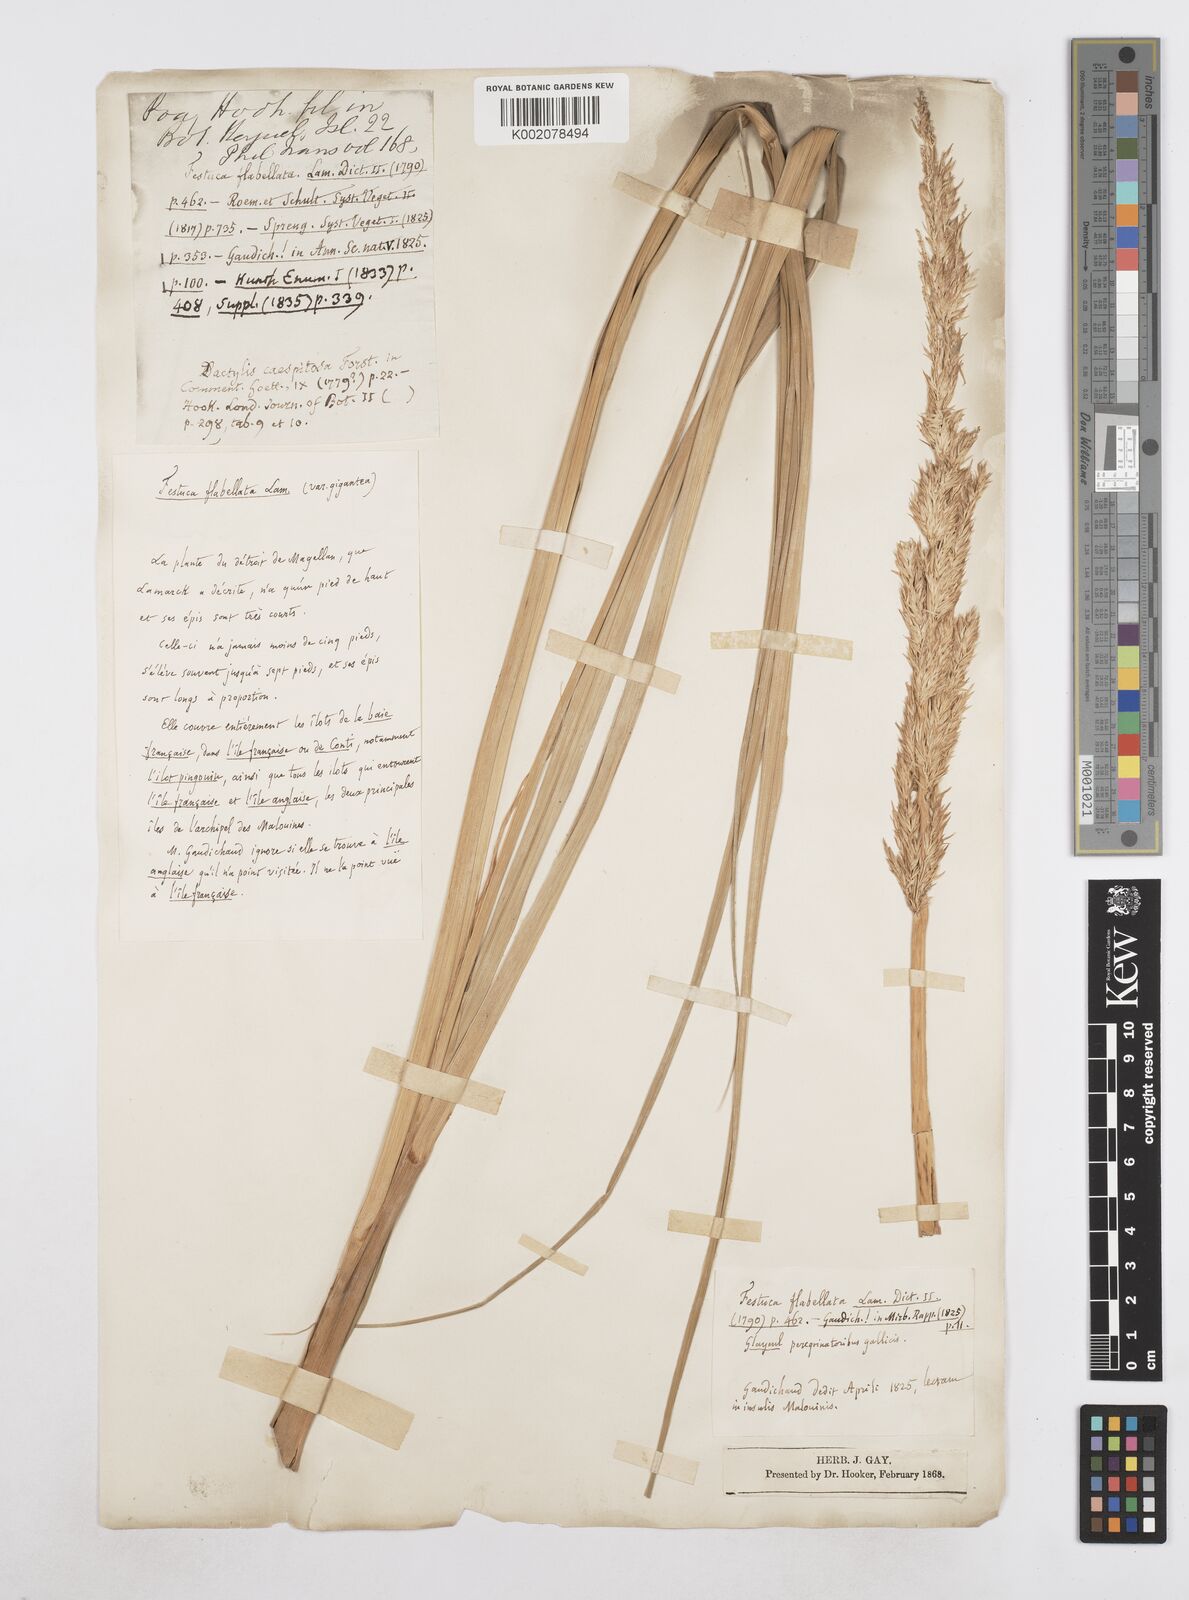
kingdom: Plantae
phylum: Tracheophyta
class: Liliopsida
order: Poales
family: Poaceae
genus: Poa
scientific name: Poa flabellata
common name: Tussac-grass
